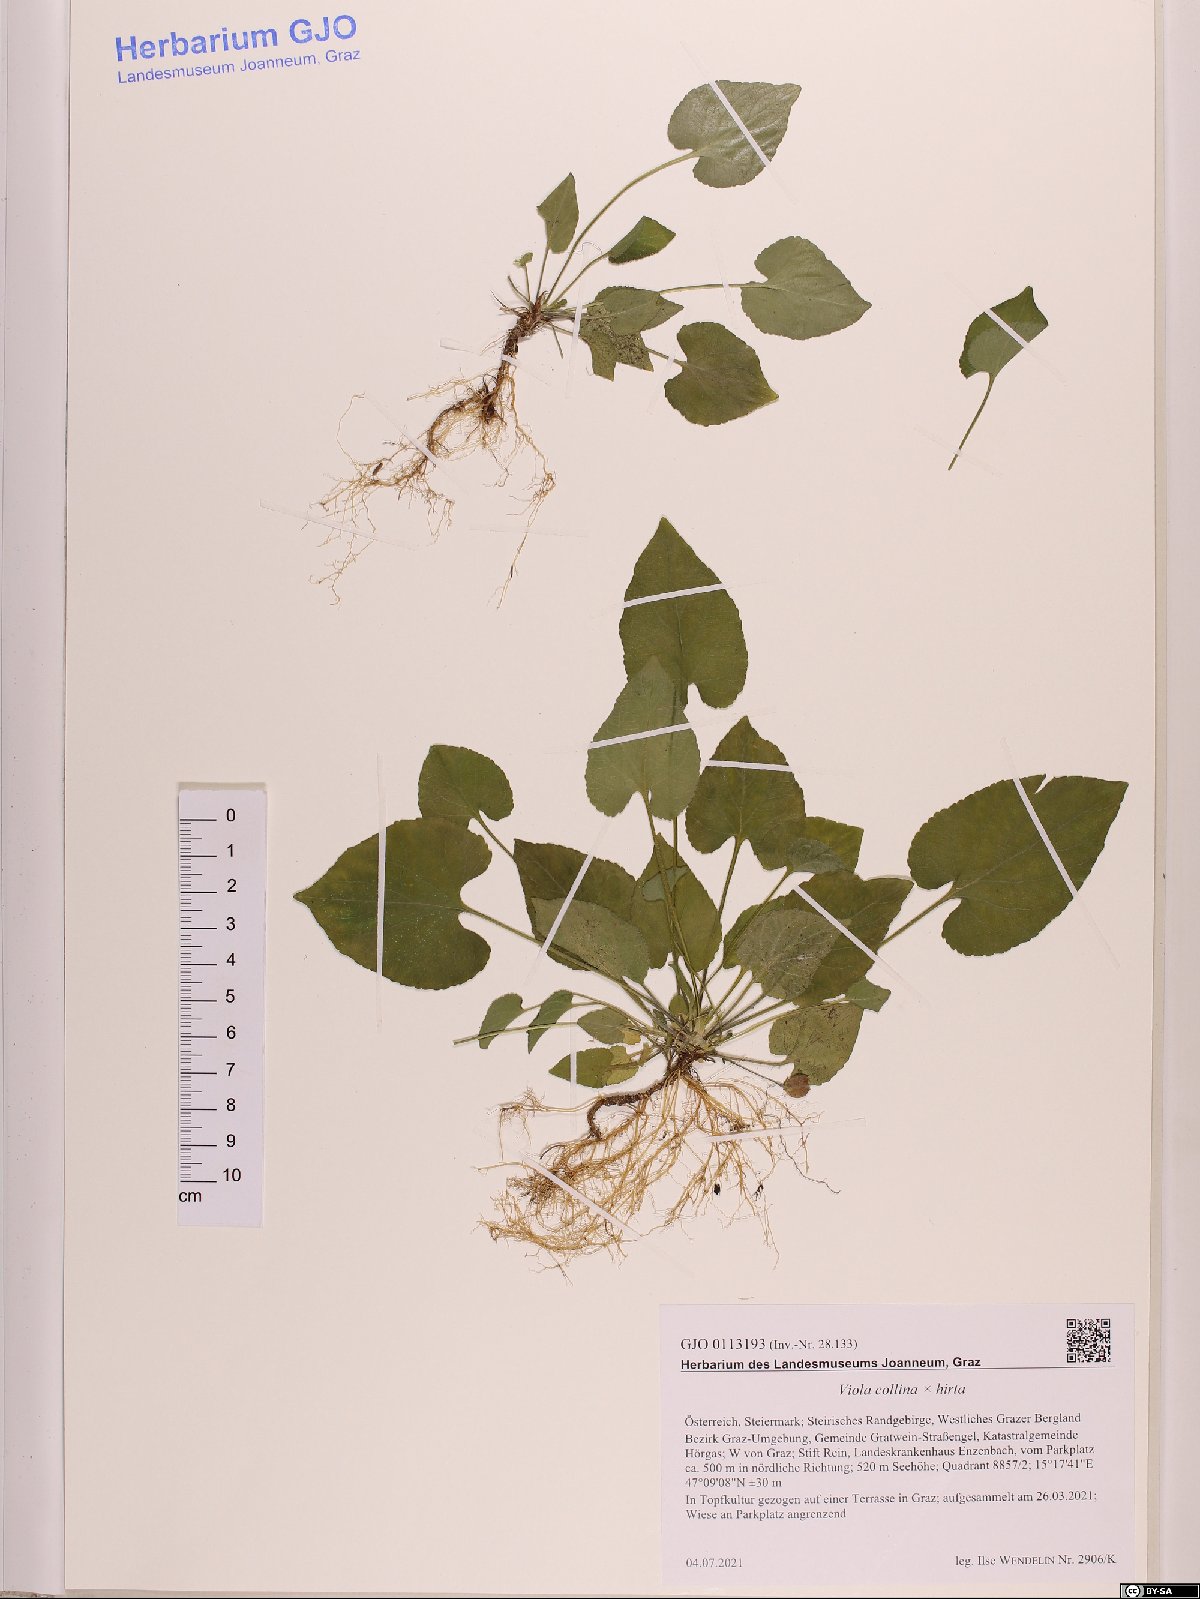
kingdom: Plantae
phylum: Tracheophyta
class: Magnoliopsida
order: Malpighiales
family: Violaceae
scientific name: Violaceae
